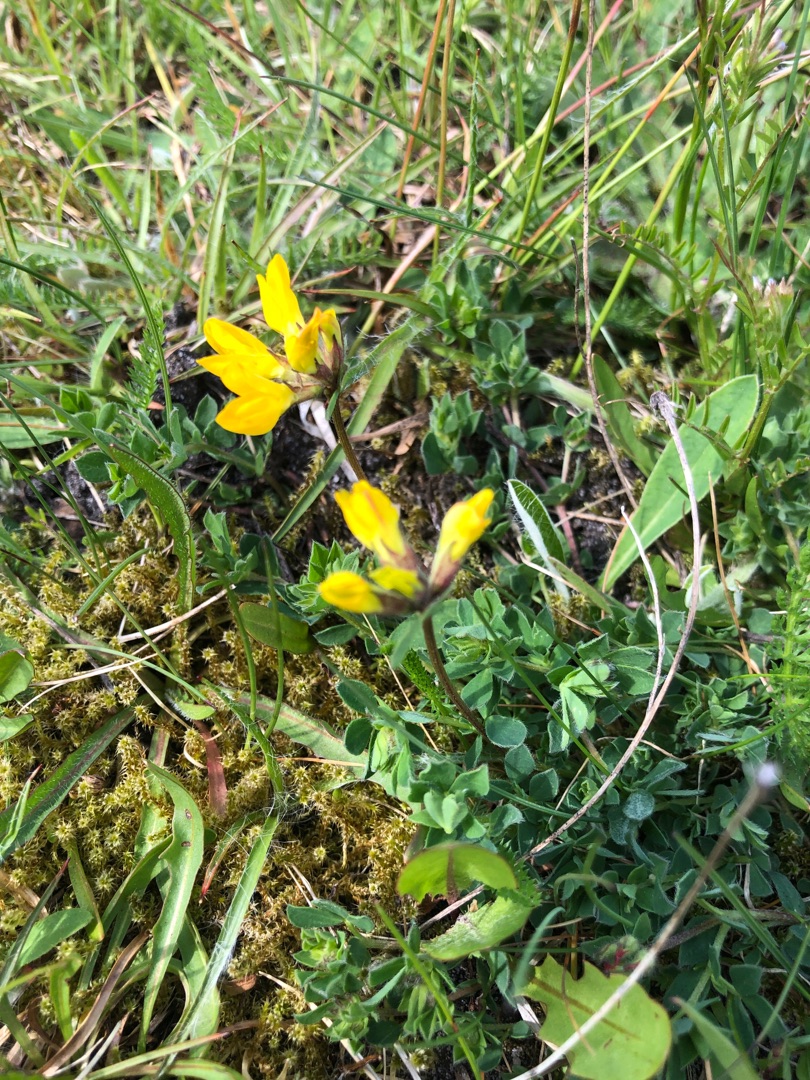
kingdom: Plantae
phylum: Tracheophyta
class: Magnoliopsida
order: Fabales
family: Fabaceae
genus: Lotus
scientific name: Lotus corniculatus
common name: Almindelig kællingetand
